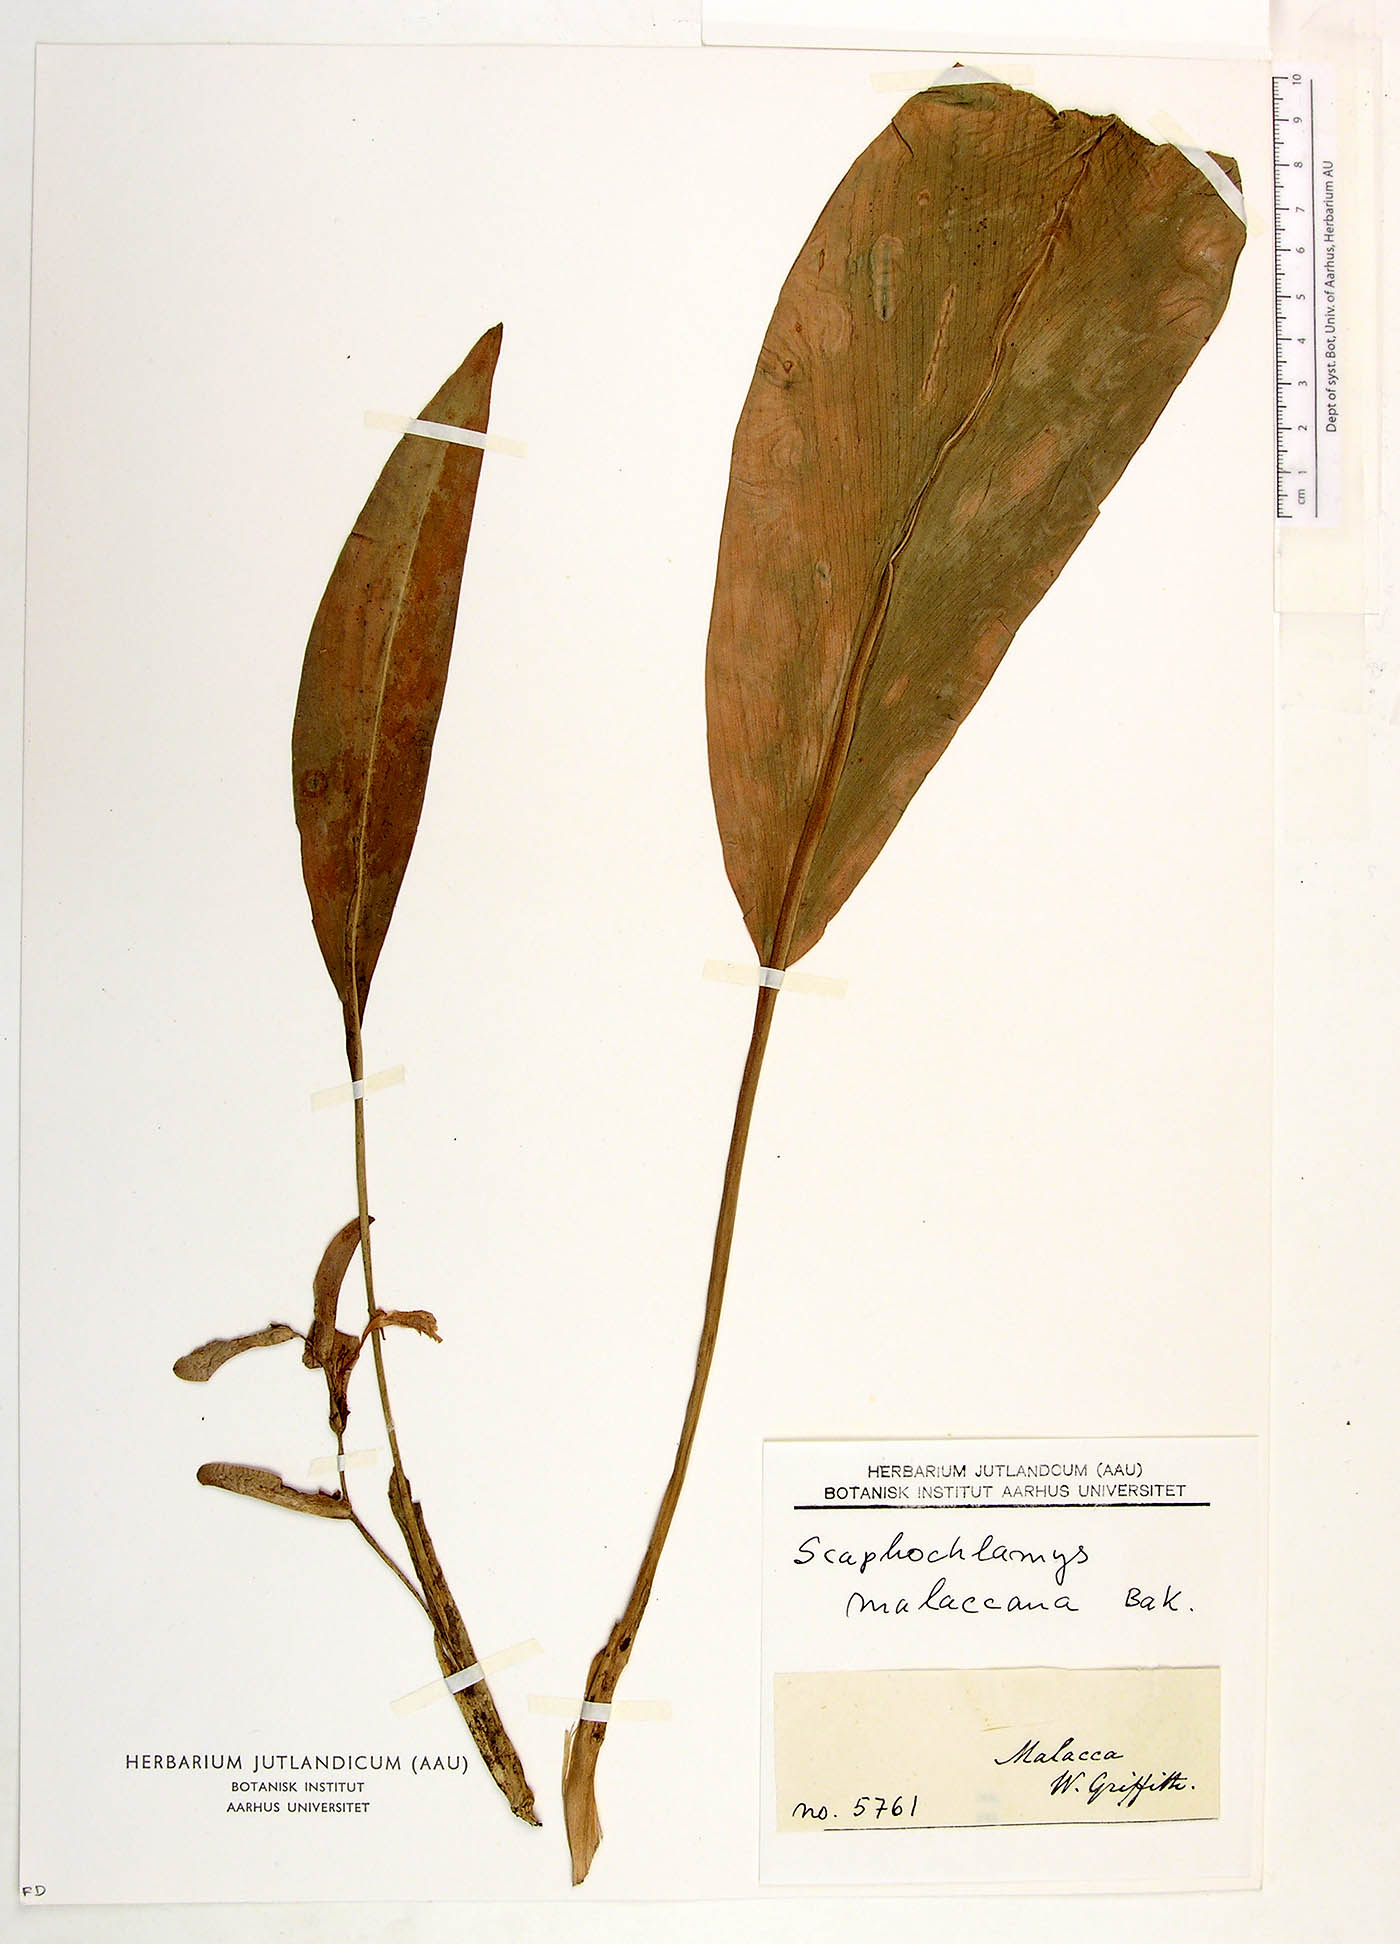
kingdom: Plantae
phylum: Tracheophyta
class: Liliopsida
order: Zingiberales
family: Zingiberaceae
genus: Scaphochlamys
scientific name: Scaphochlamys malaccana
